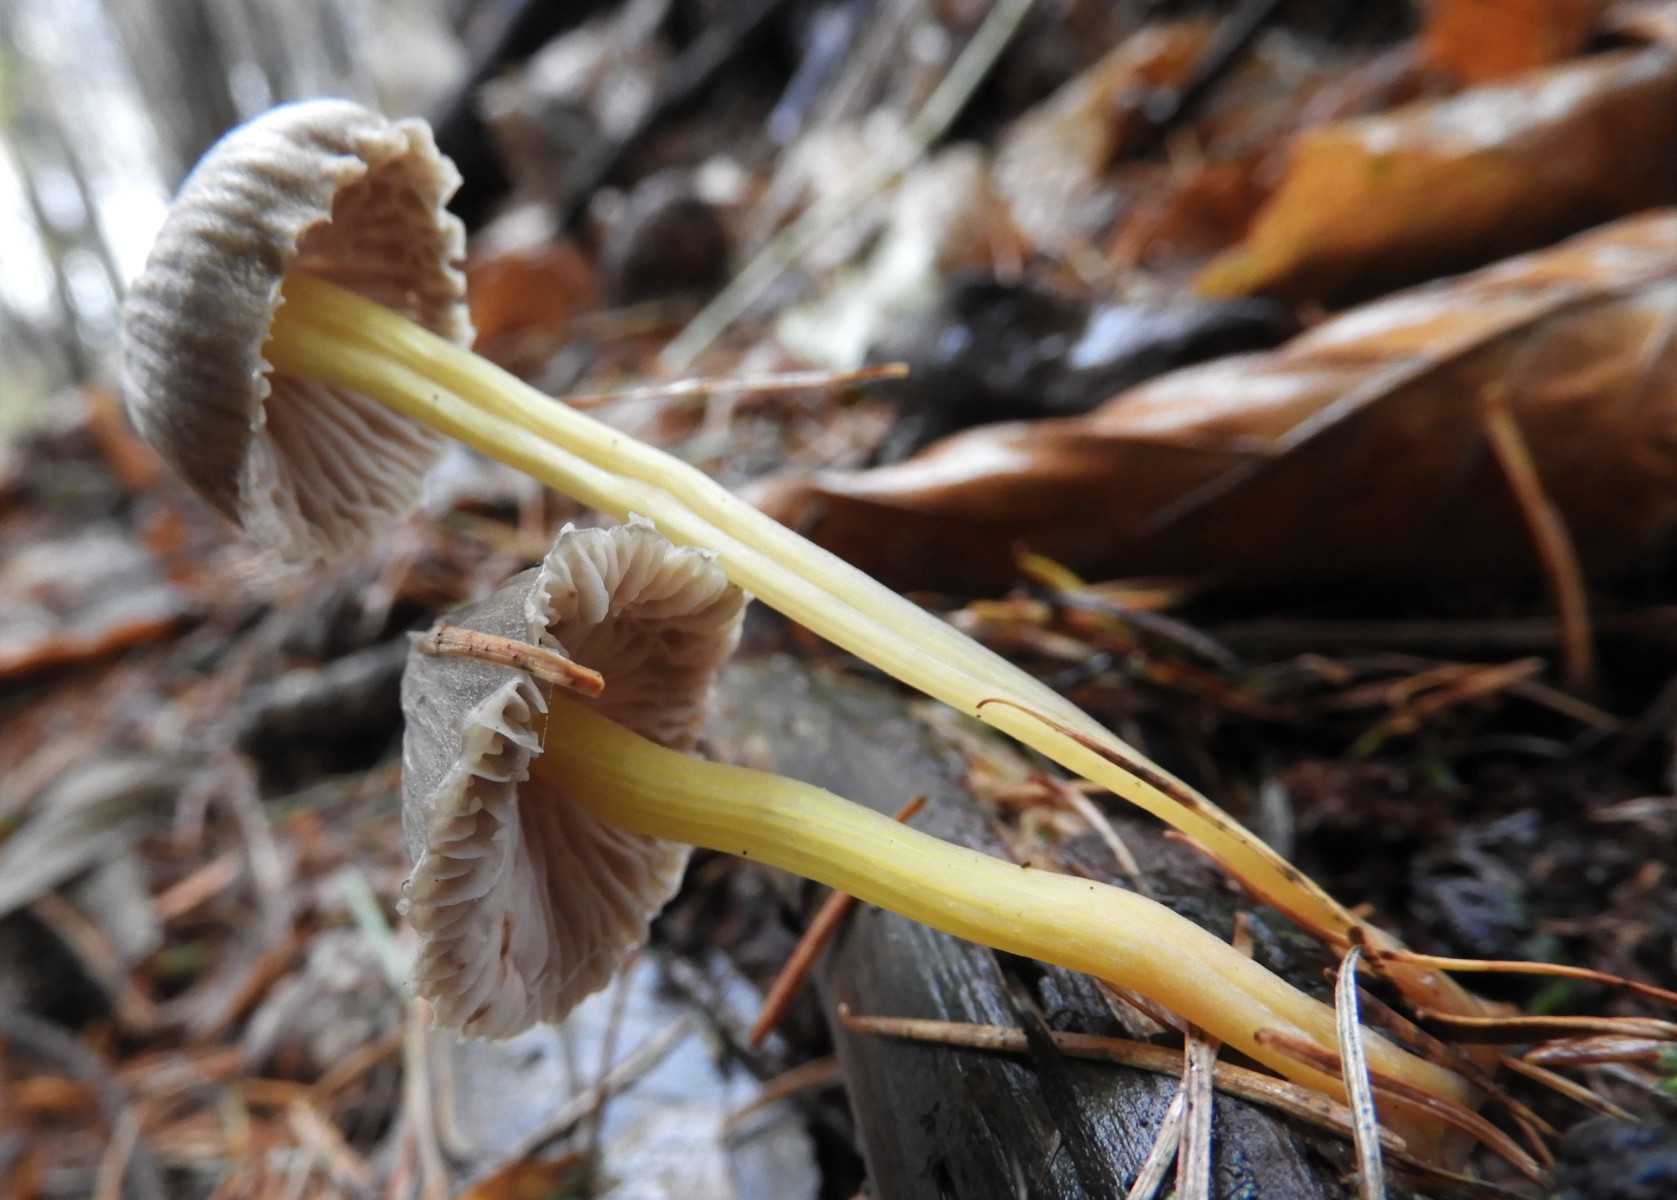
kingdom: Fungi
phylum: Basidiomycota
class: Agaricomycetes
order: Agaricales
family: Mycenaceae
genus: Mycena
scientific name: Mycena epipterygia
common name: gulstokket huesvamp
